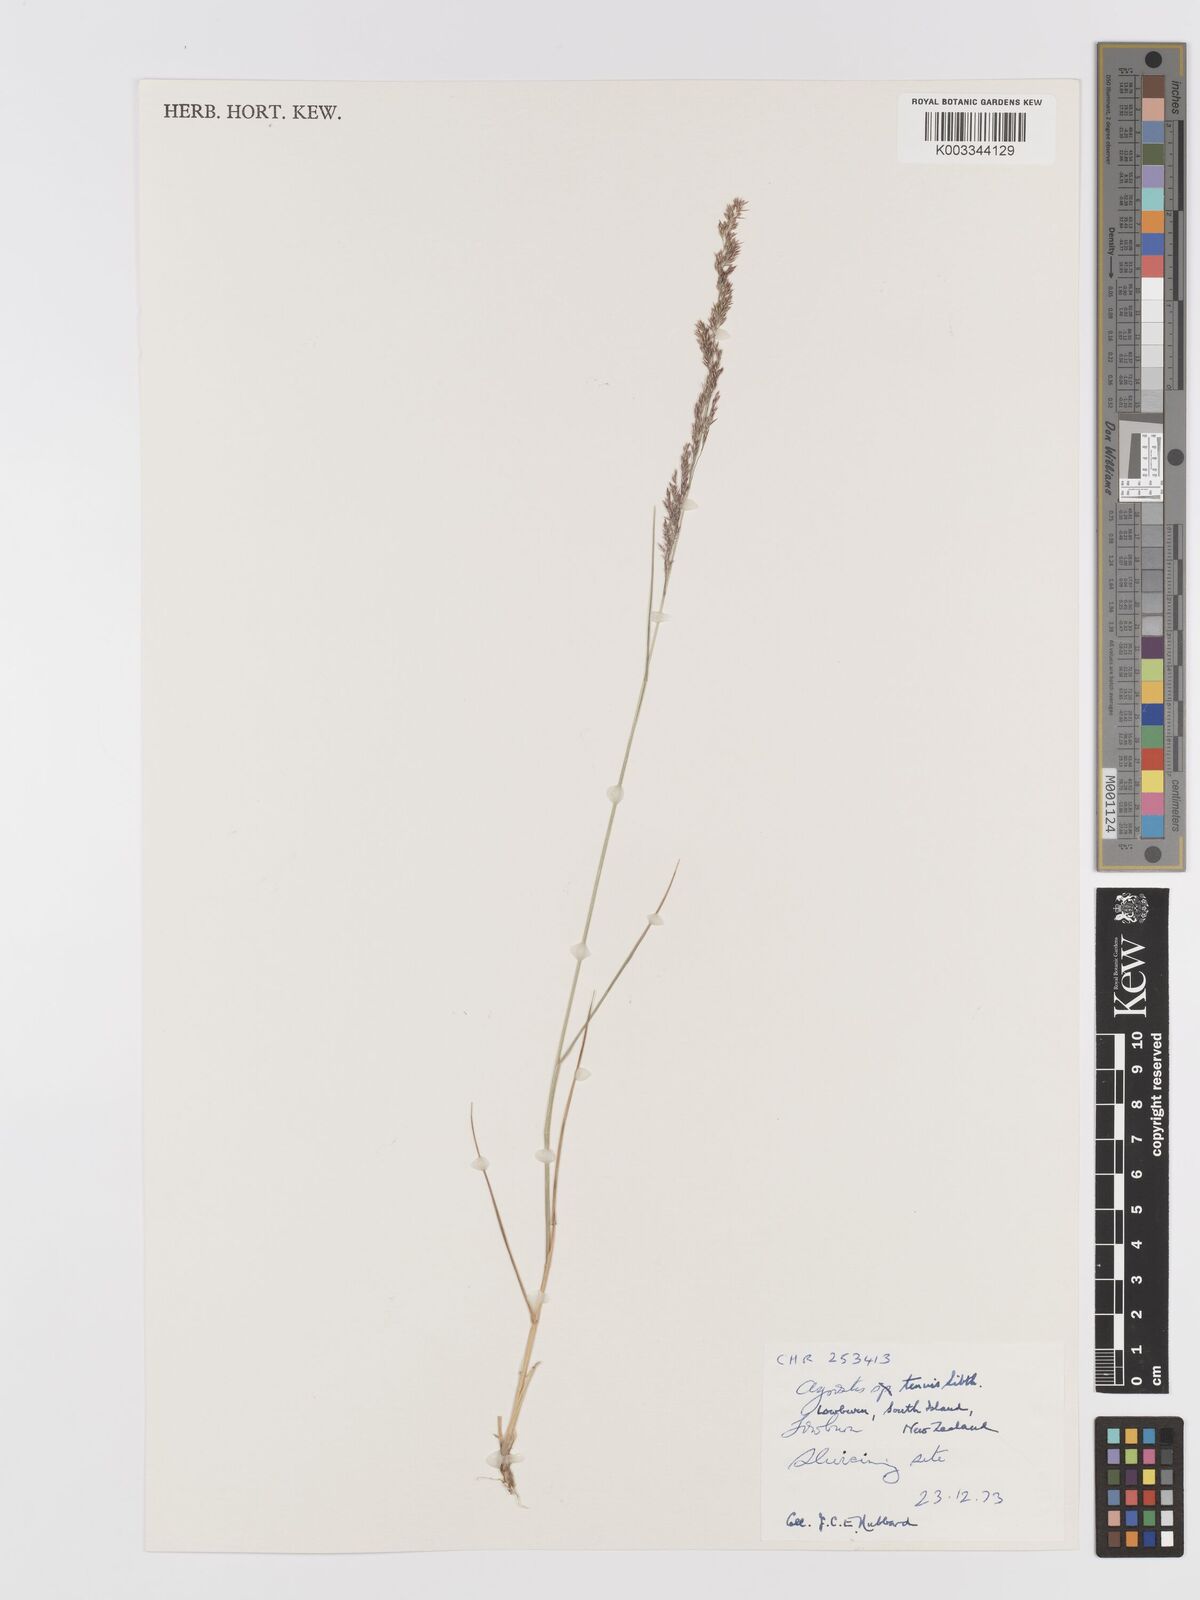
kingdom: Plantae
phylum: Tracheophyta
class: Liliopsida
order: Poales
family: Poaceae
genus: Agrostis
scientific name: Agrostis capillaris
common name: Colonial bentgrass
